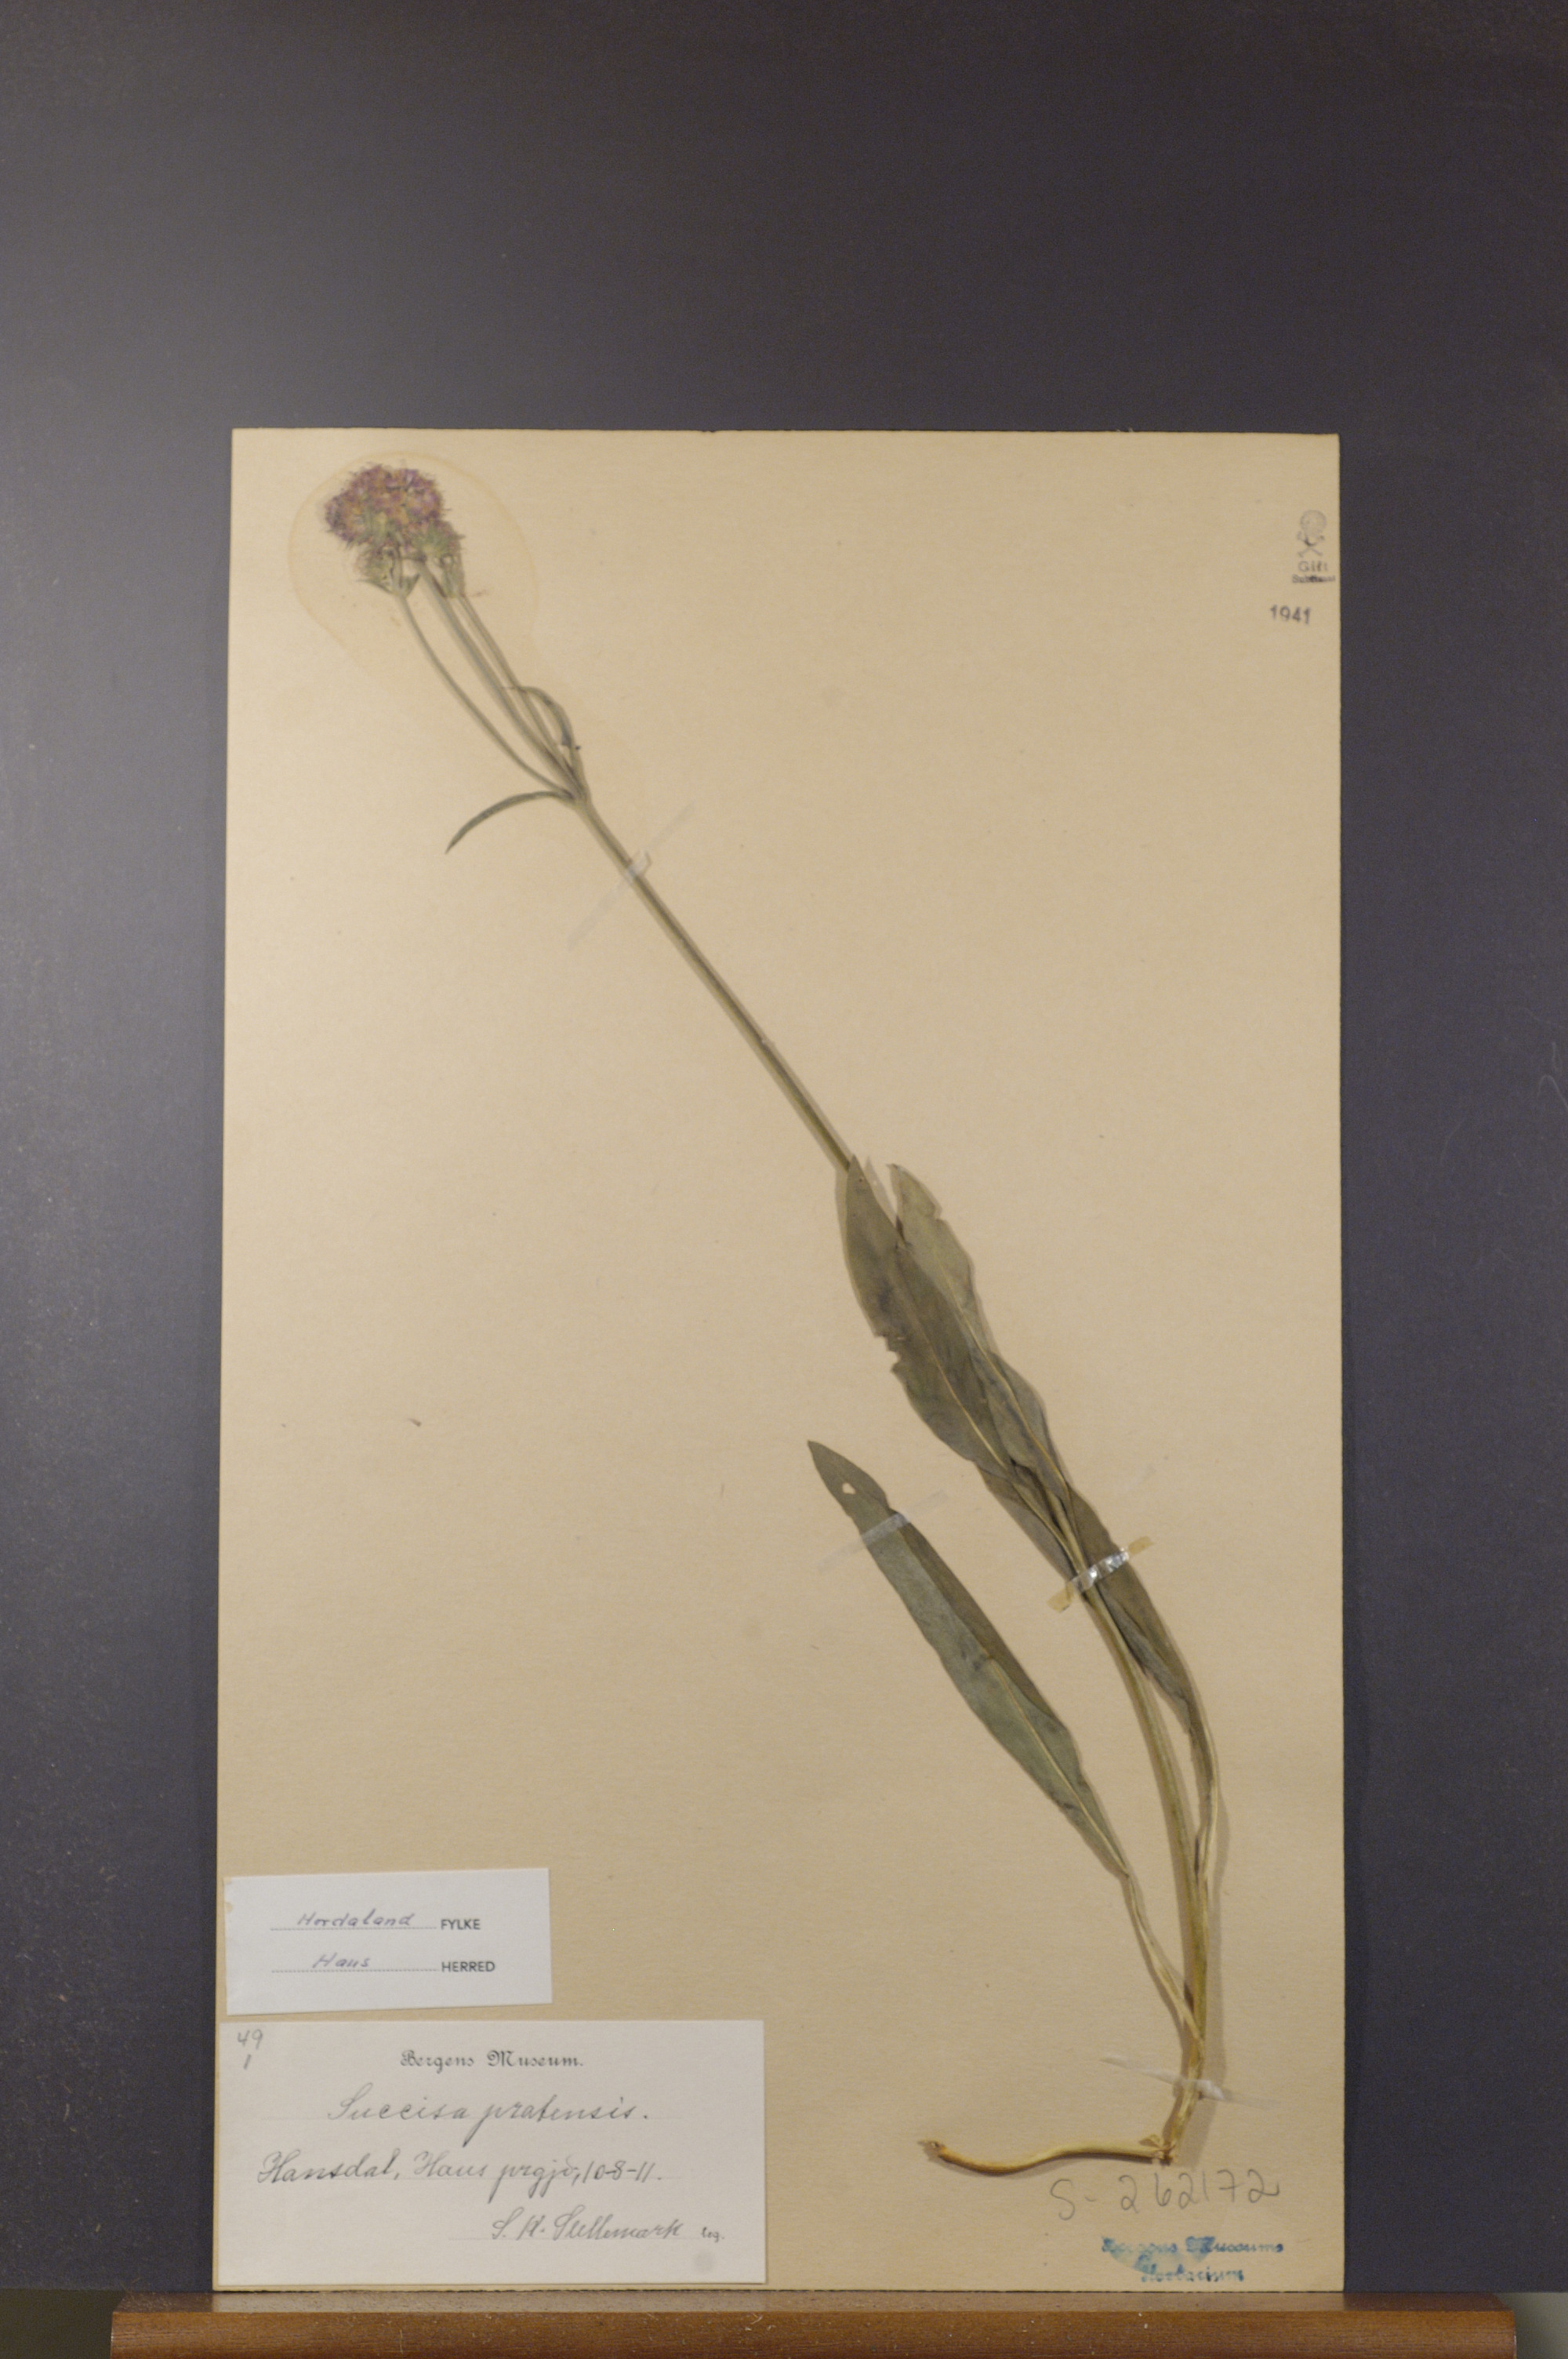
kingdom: Plantae
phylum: Tracheophyta
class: Magnoliopsida
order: Dipsacales
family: Caprifoliaceae
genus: Succisa
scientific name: Succisa pratensis
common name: Devil's-bit
